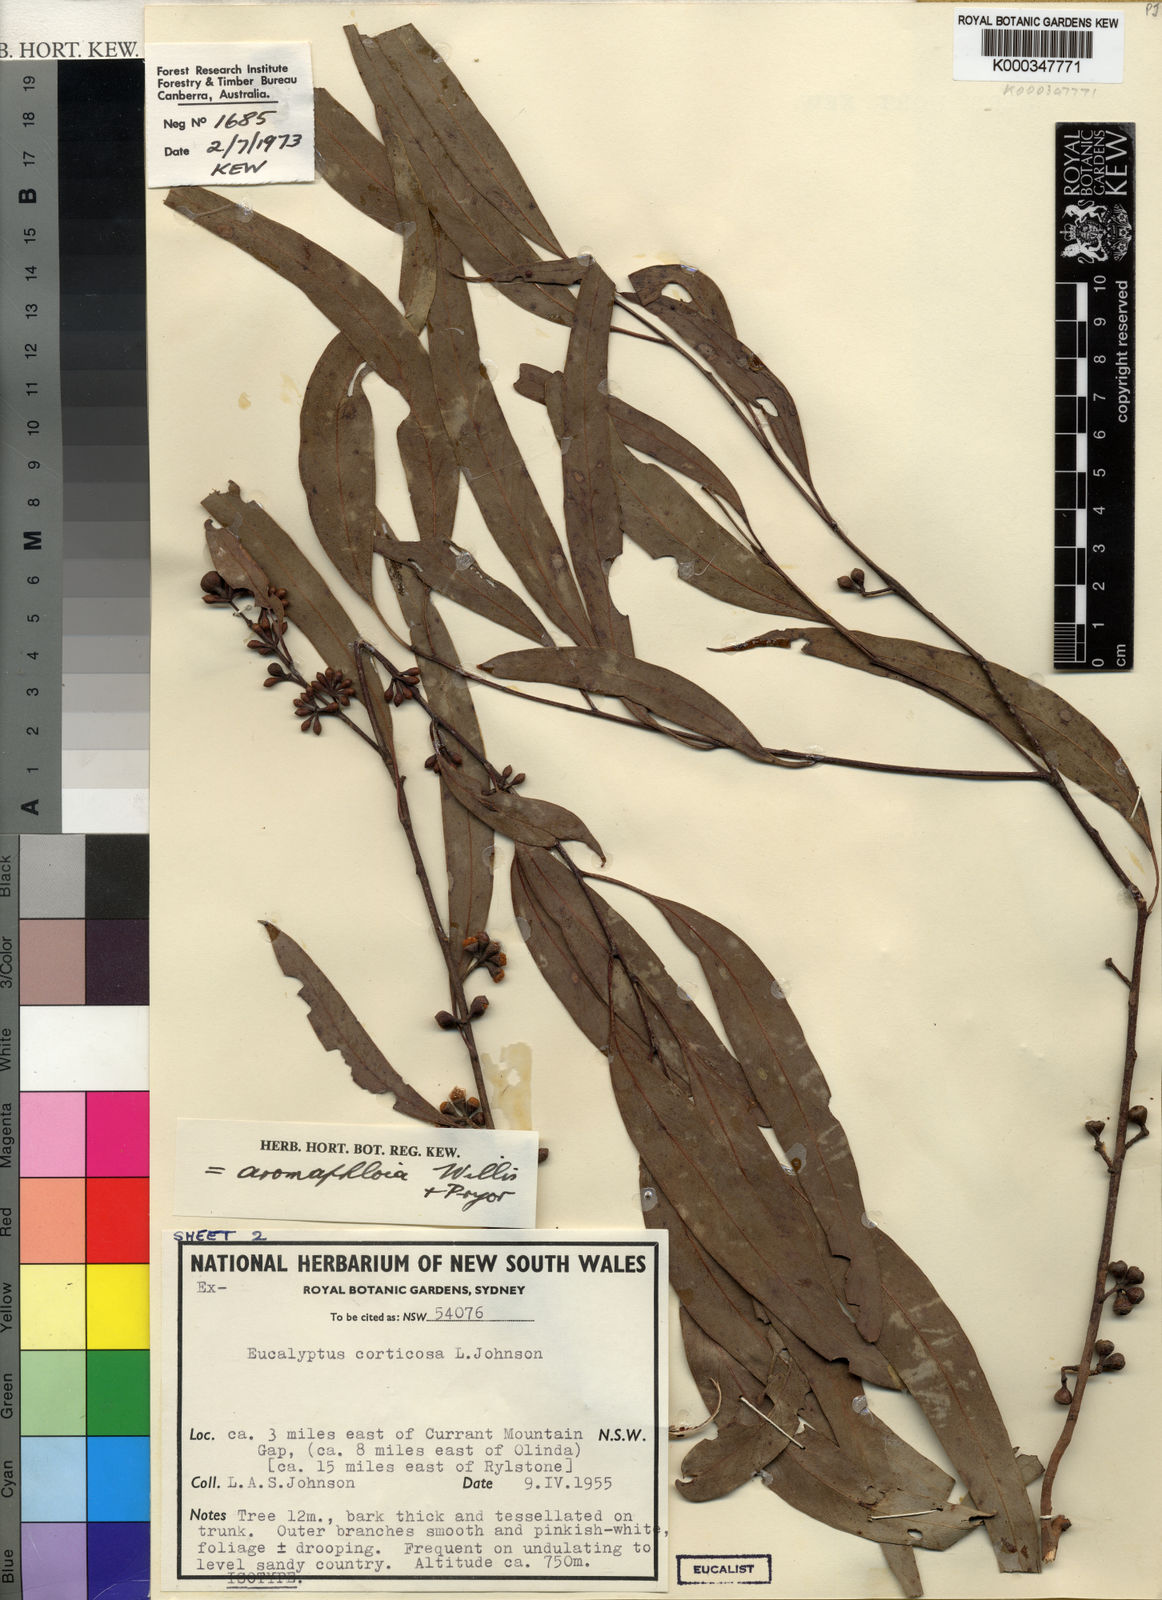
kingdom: Plantae
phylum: Tracheophyta
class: Magnoliopsida
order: Myrtales
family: Myrtaceae
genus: Eucalyptus
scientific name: Eucalyptus aromaphloia
